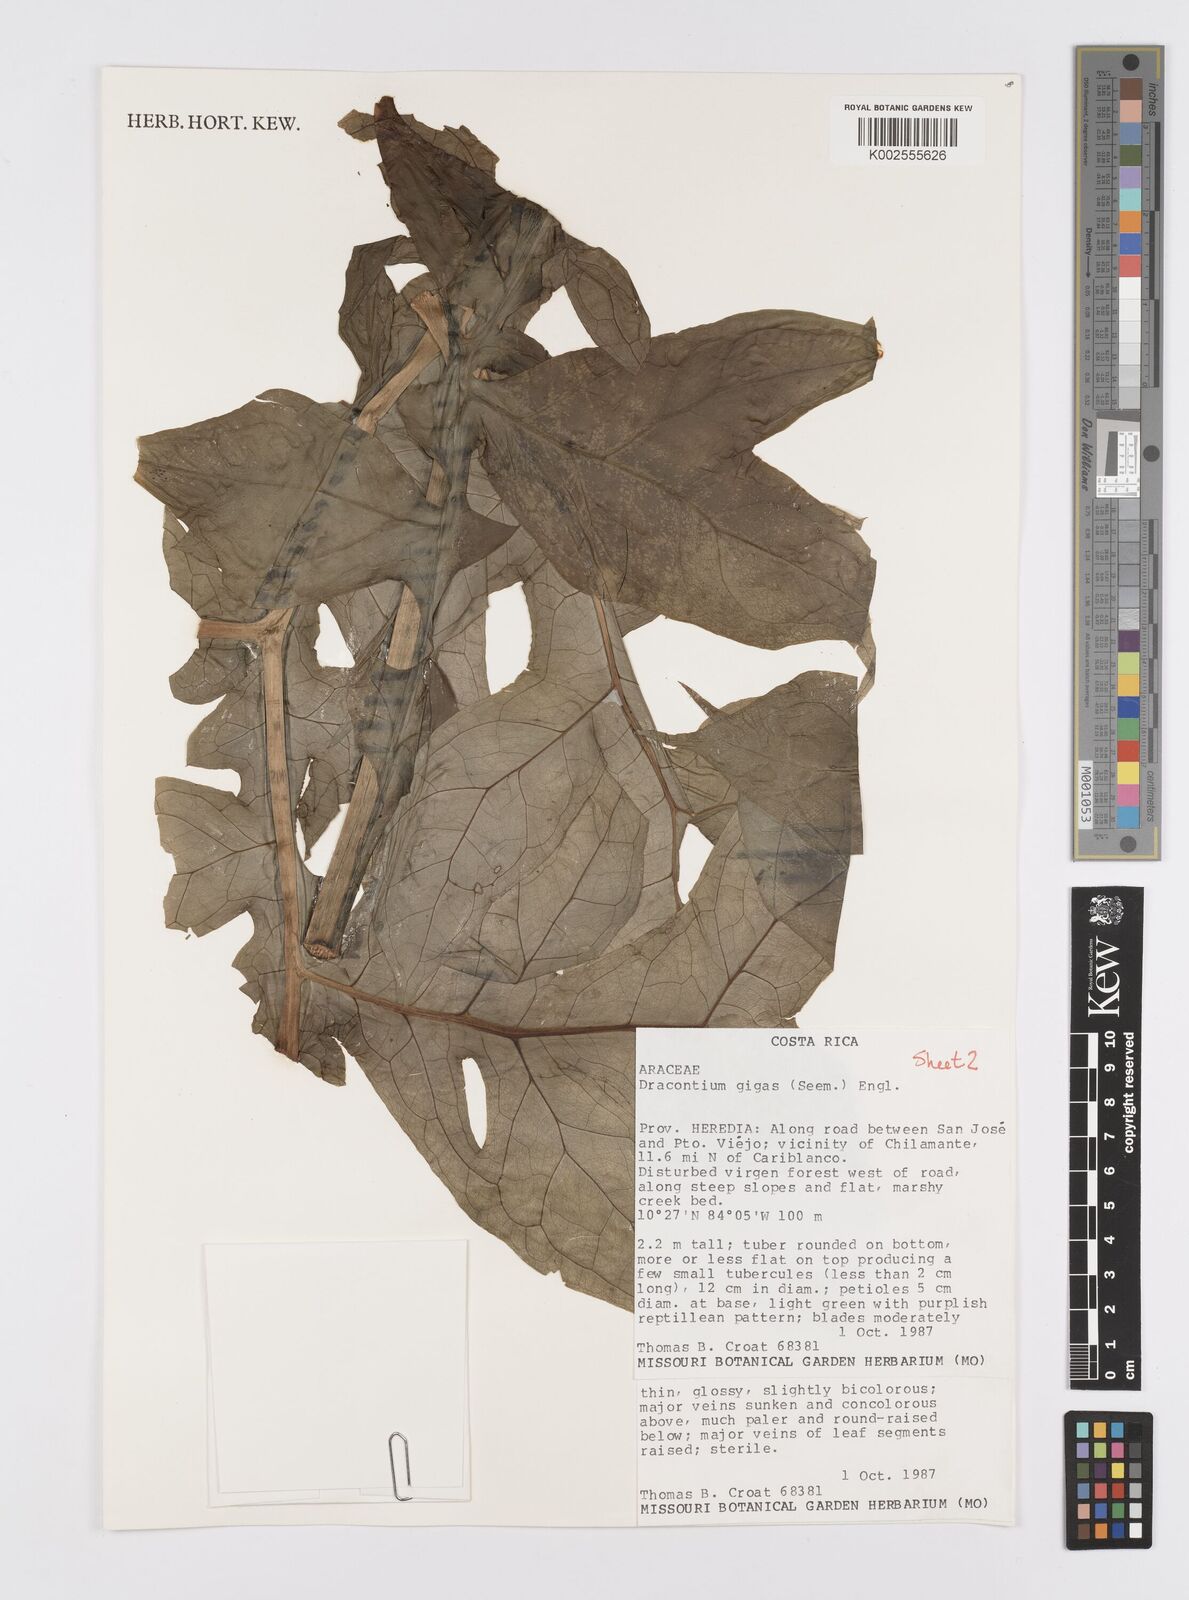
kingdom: Plantae
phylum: Tracheophyta
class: Liliopsida
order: Alismatales
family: Araceae
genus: Dracontium
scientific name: Dracontium gigas
